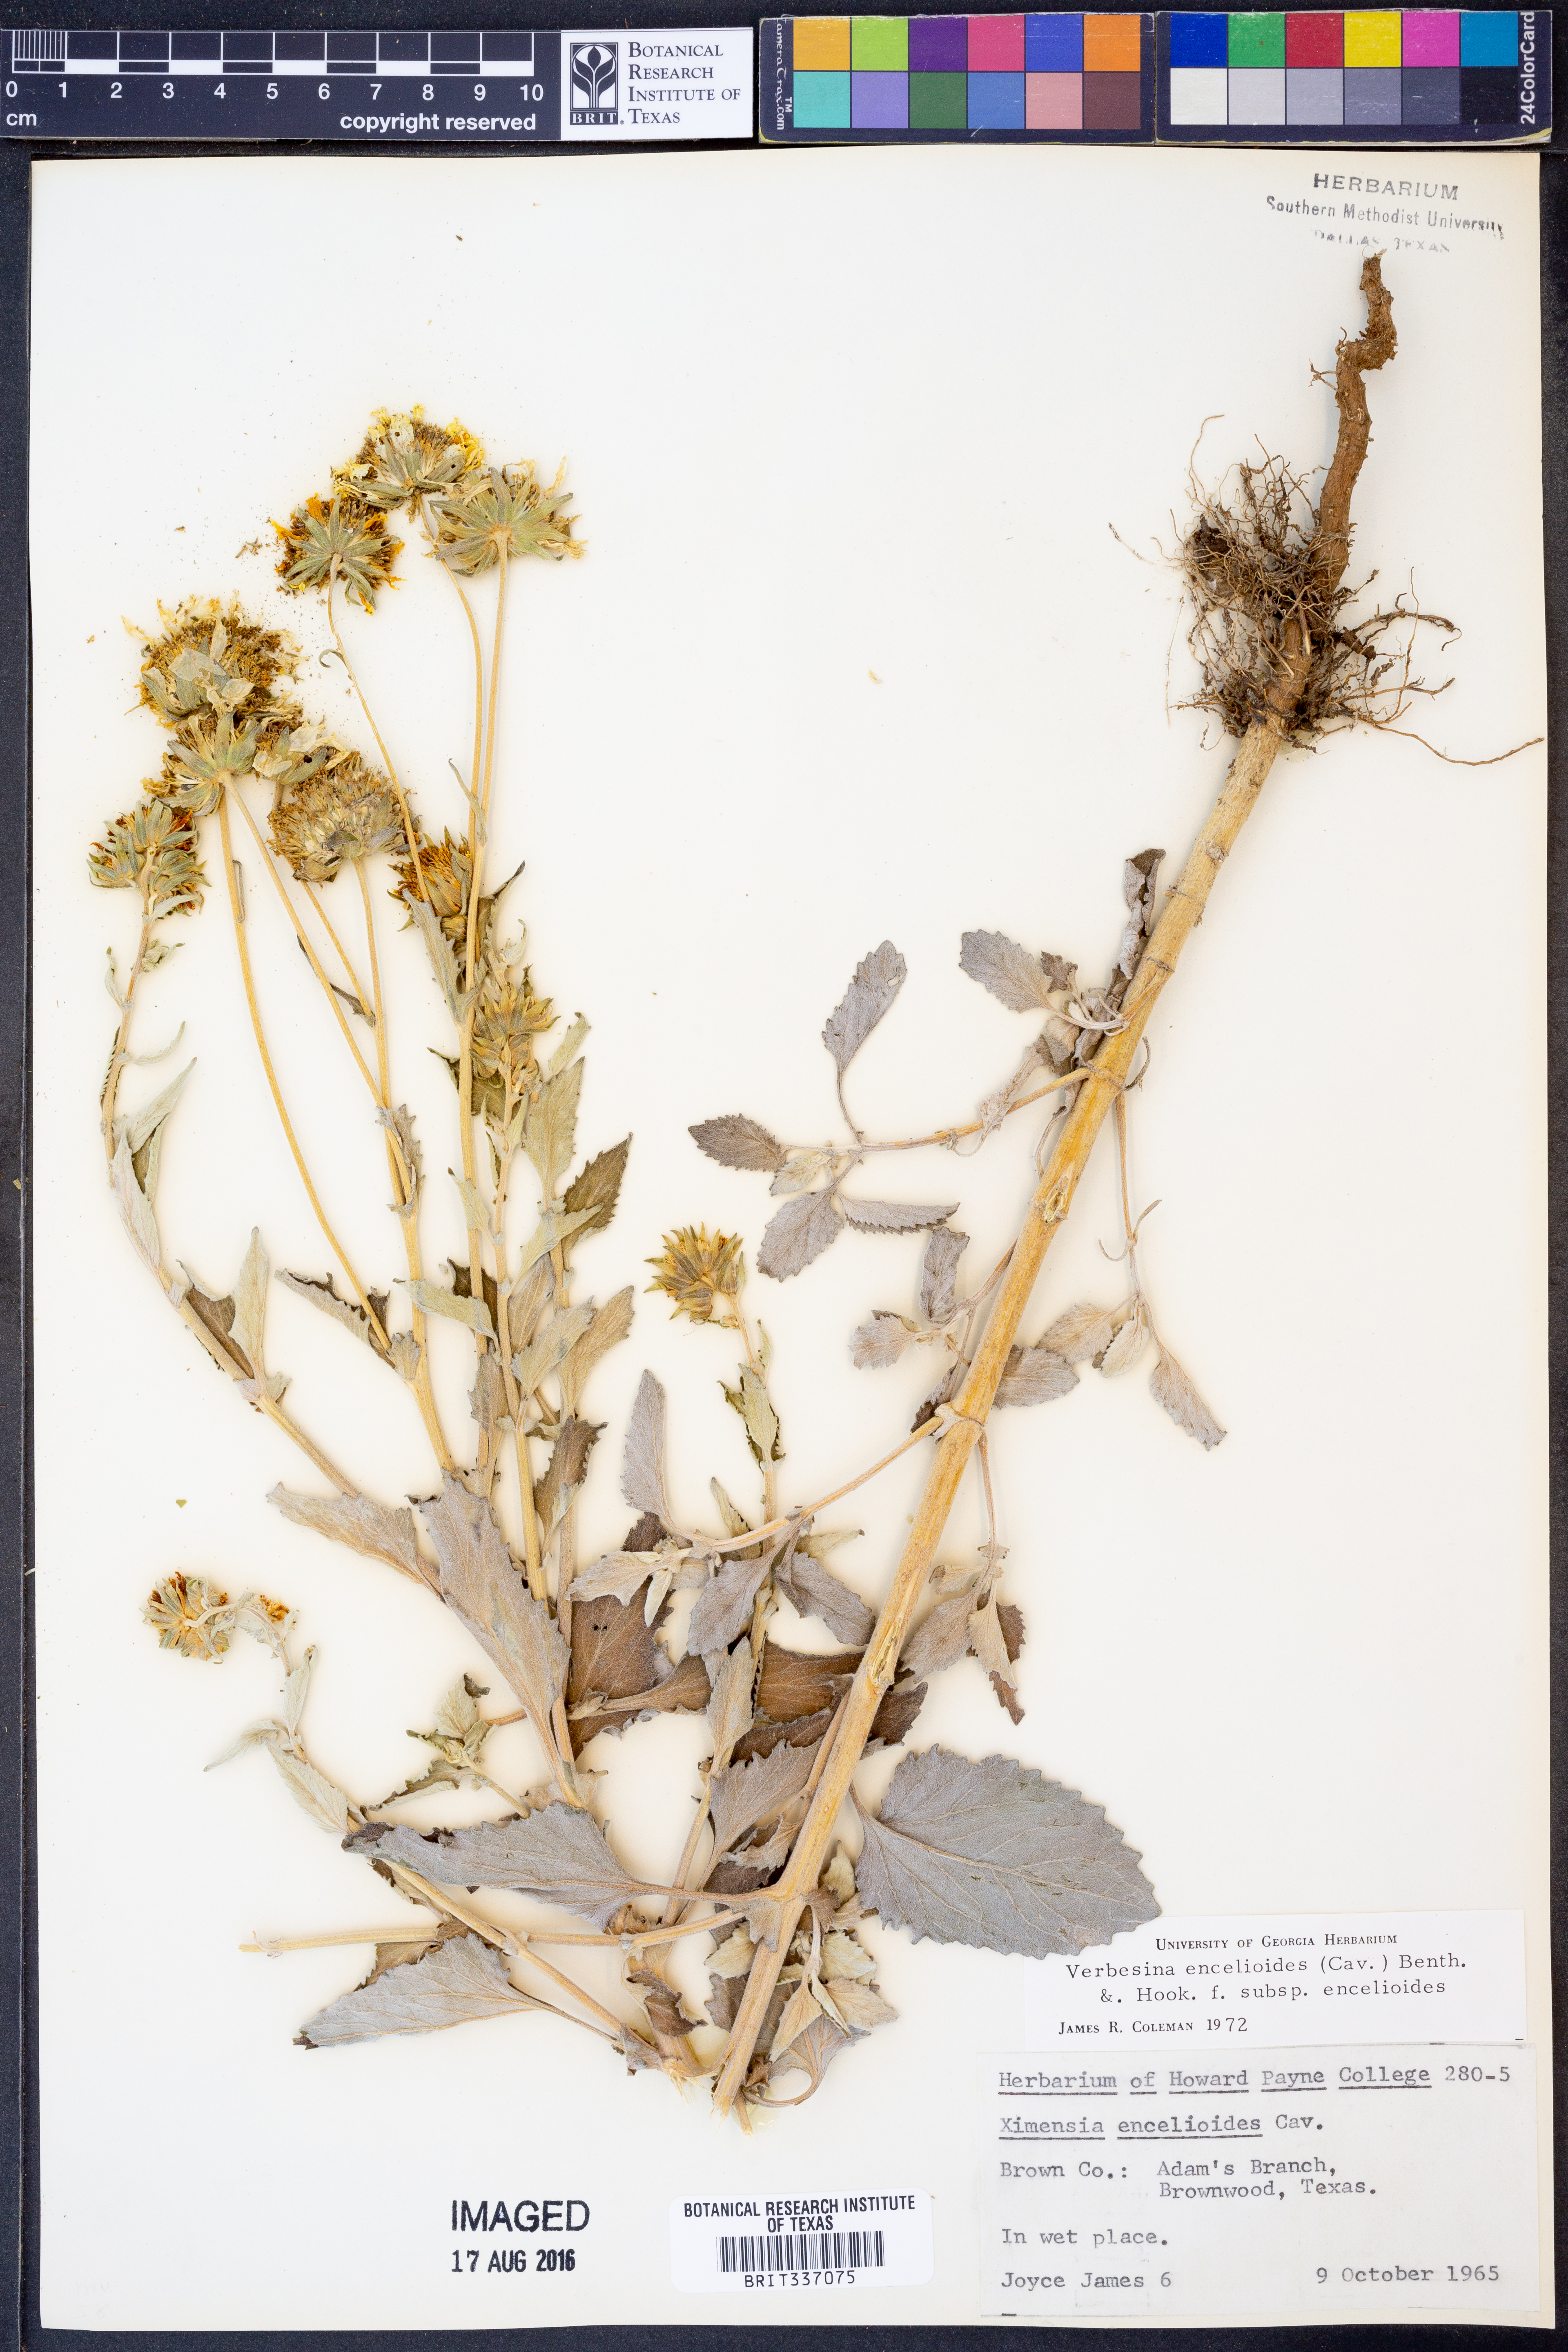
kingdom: Plantae
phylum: Tracheophyta
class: Magnoliopsida
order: Asterales
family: Asteraceae
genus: Verbesina
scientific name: Verbesina encelioides
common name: Golden crownbeard
